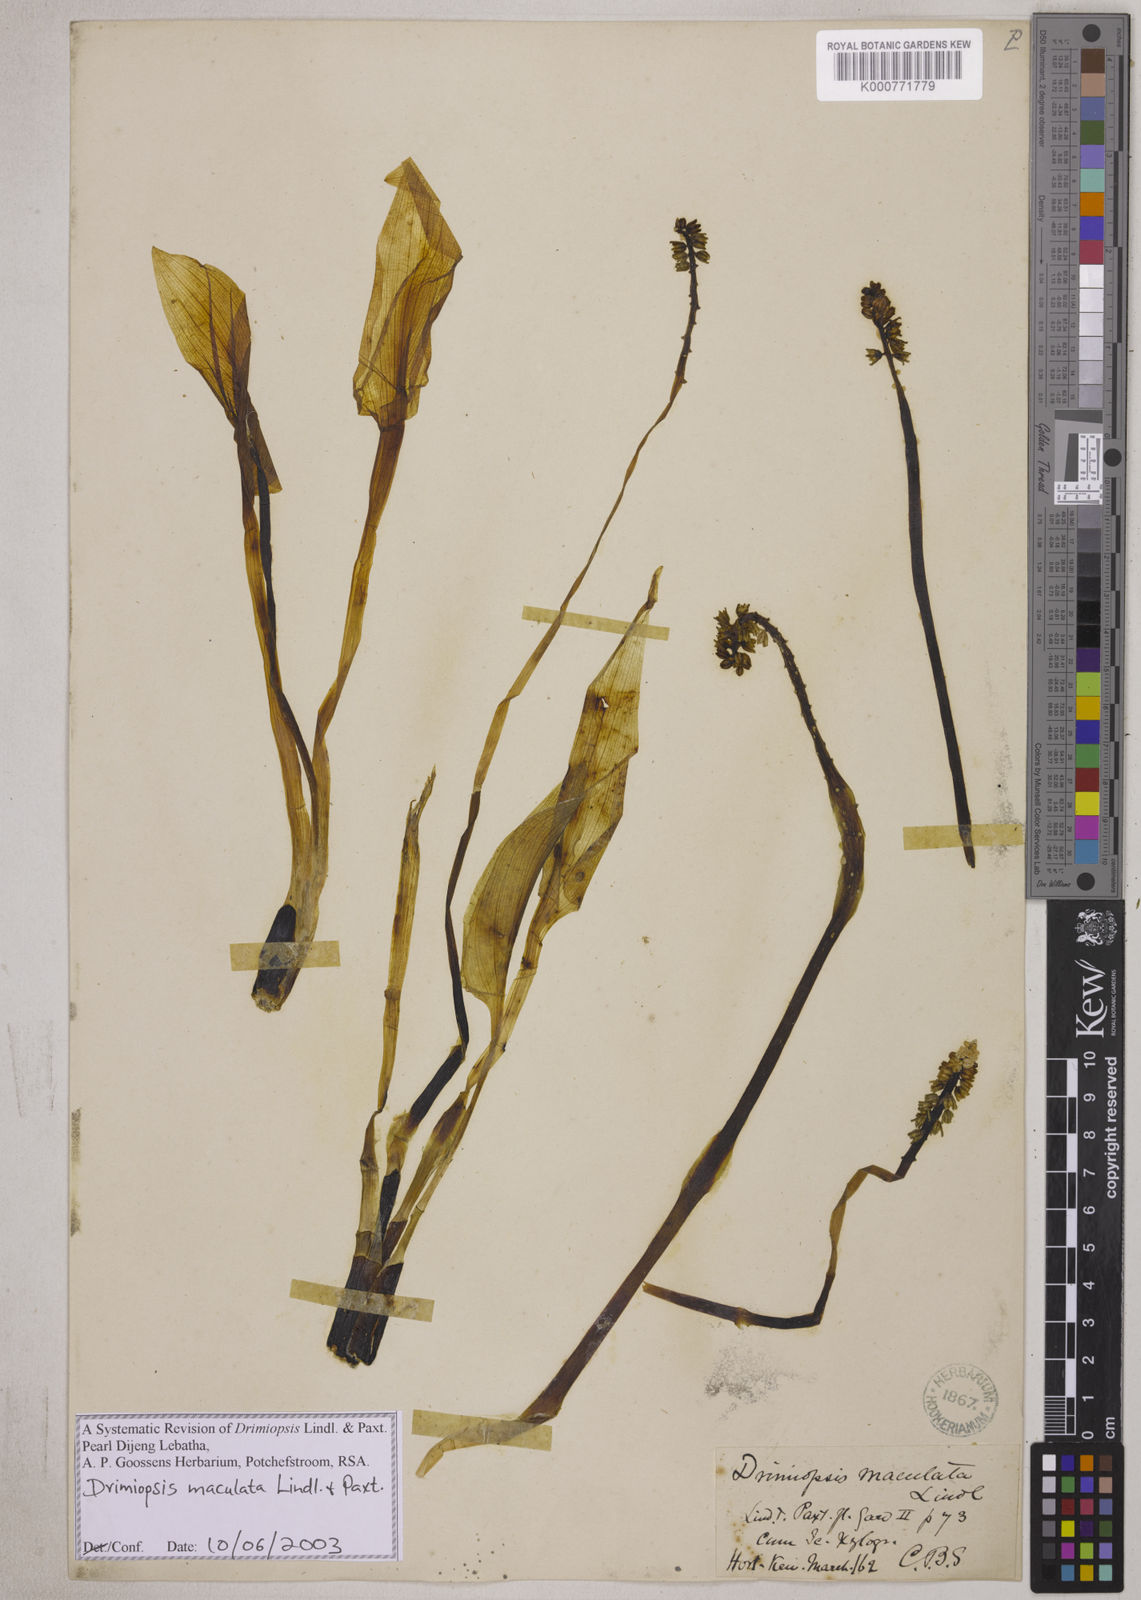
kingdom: Plantae
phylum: Tracheophyta
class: Liliopsida
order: Asparagales
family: Asparagaceae
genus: Drimiopsis
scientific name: Drimiopsis maculata
